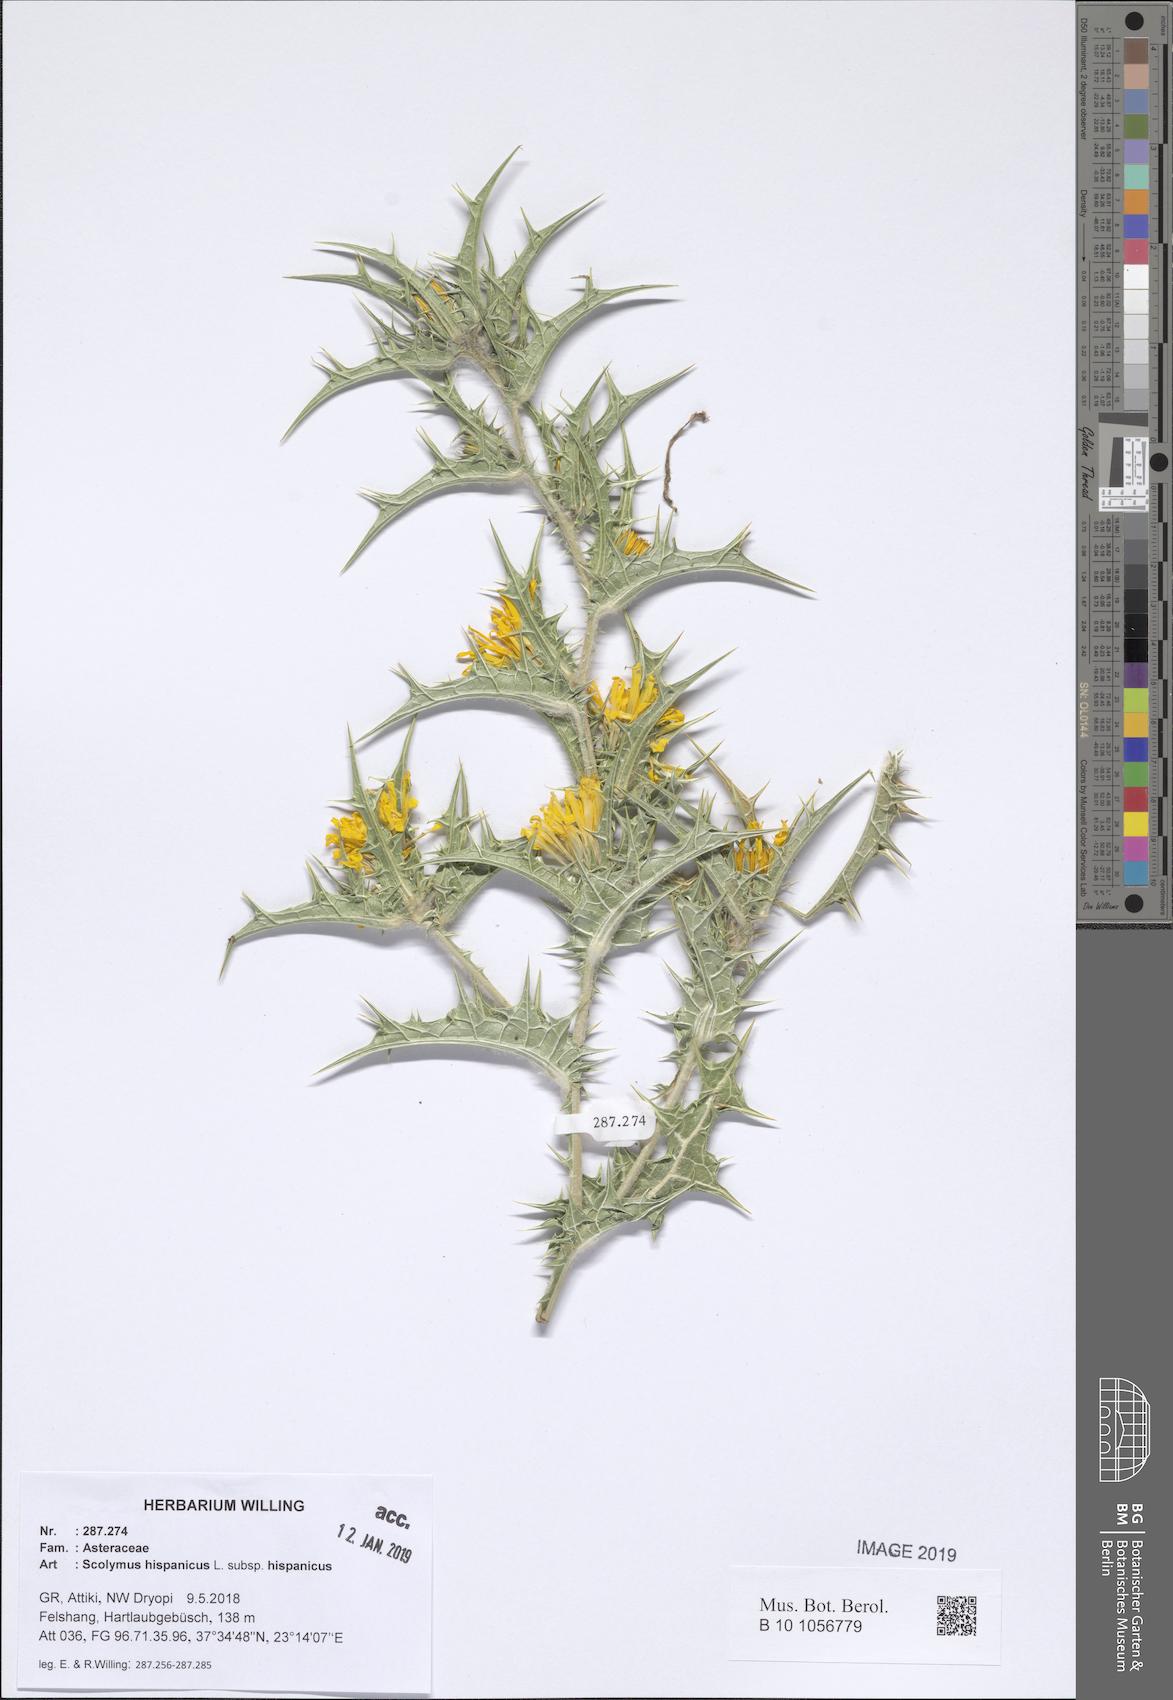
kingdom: Plantae
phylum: Tracheophyta
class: Magnoliopsida
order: Asterales
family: Asteraceae
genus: Scolymus
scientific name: Scolymus hispanicus
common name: Golden thistle
